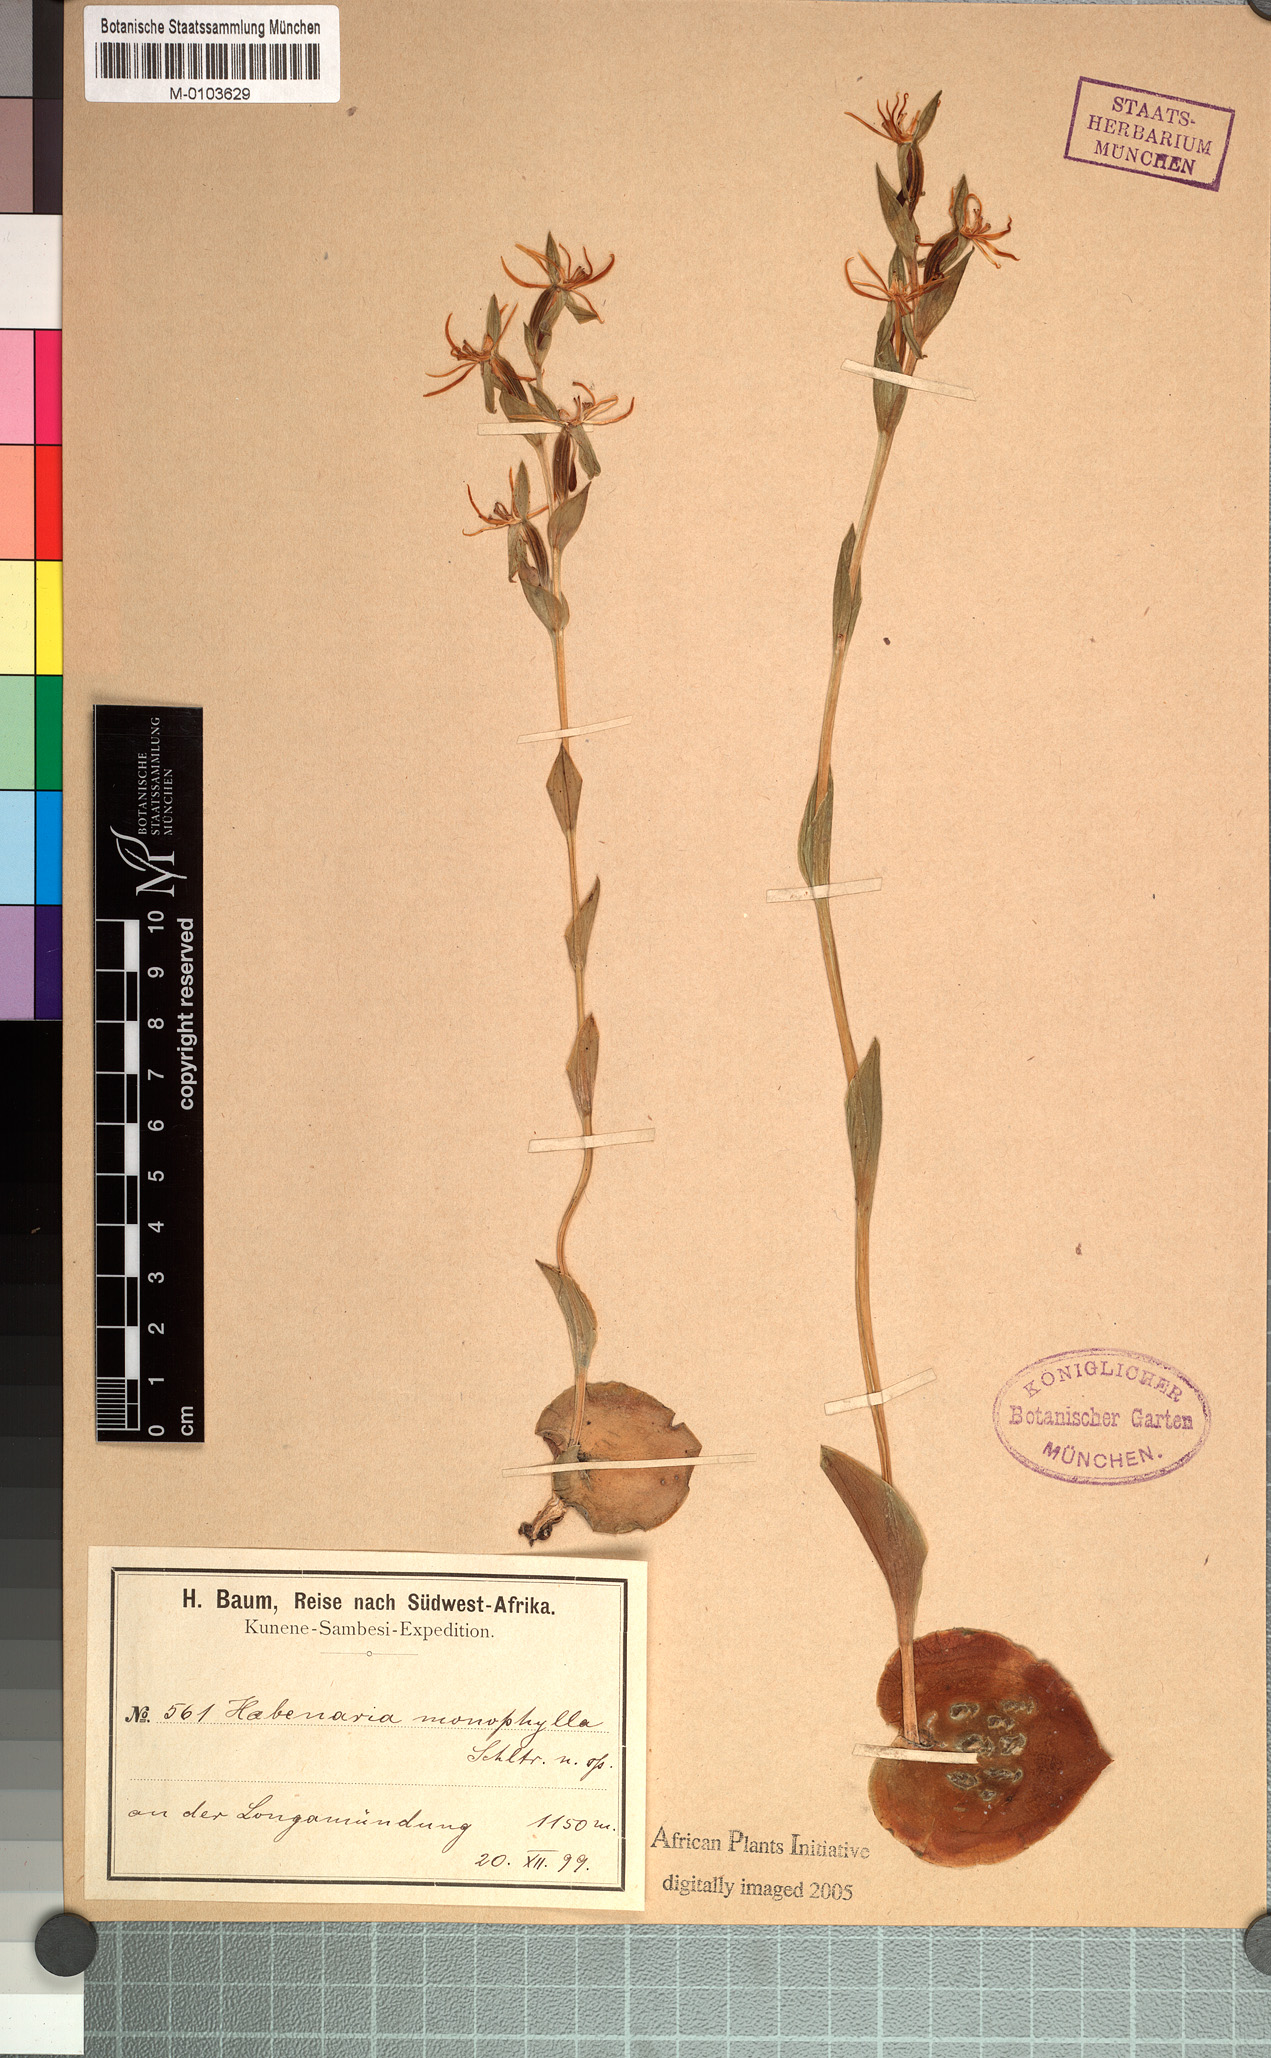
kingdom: Plantae
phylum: Tracheophyta
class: Liliopsida
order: Asparagales
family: Orchidaceae
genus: Habenaria
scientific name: Habenaria verdickii
